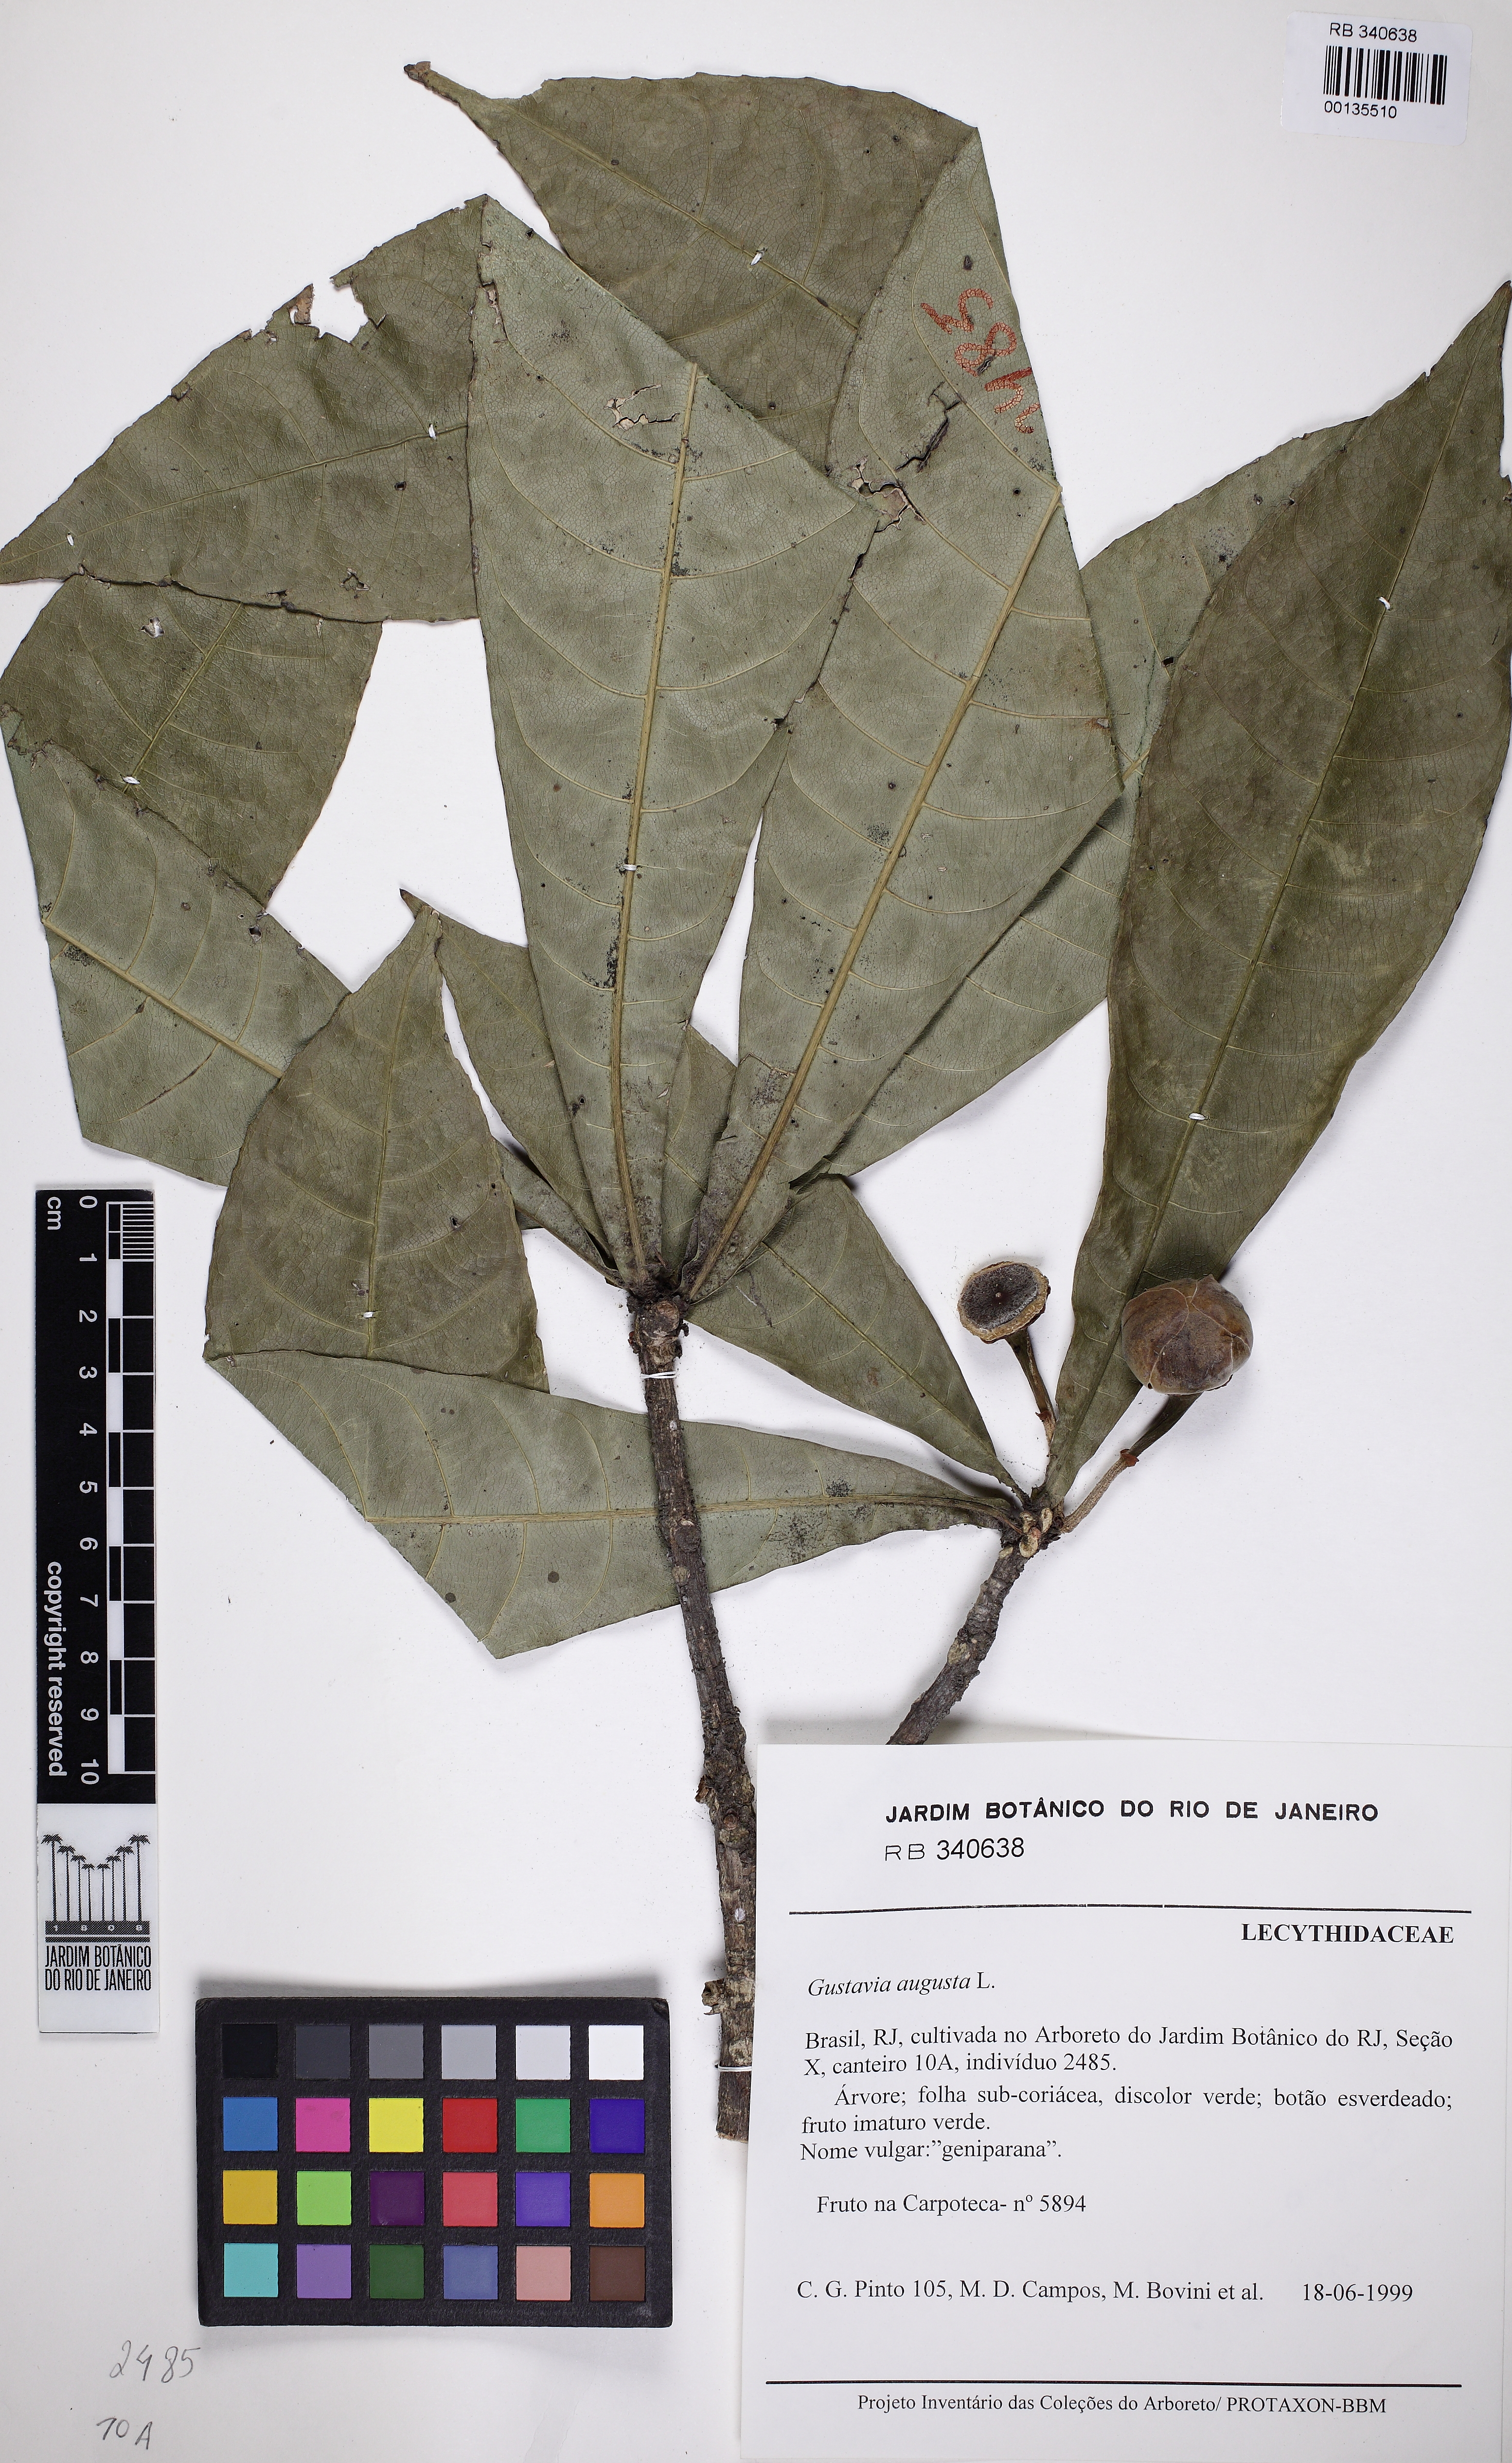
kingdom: Plantae
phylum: Tracheophyta
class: Magnoliopsida
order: Ericales
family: Lecythidaceae
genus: Gustavia
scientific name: Gustavia augusta
